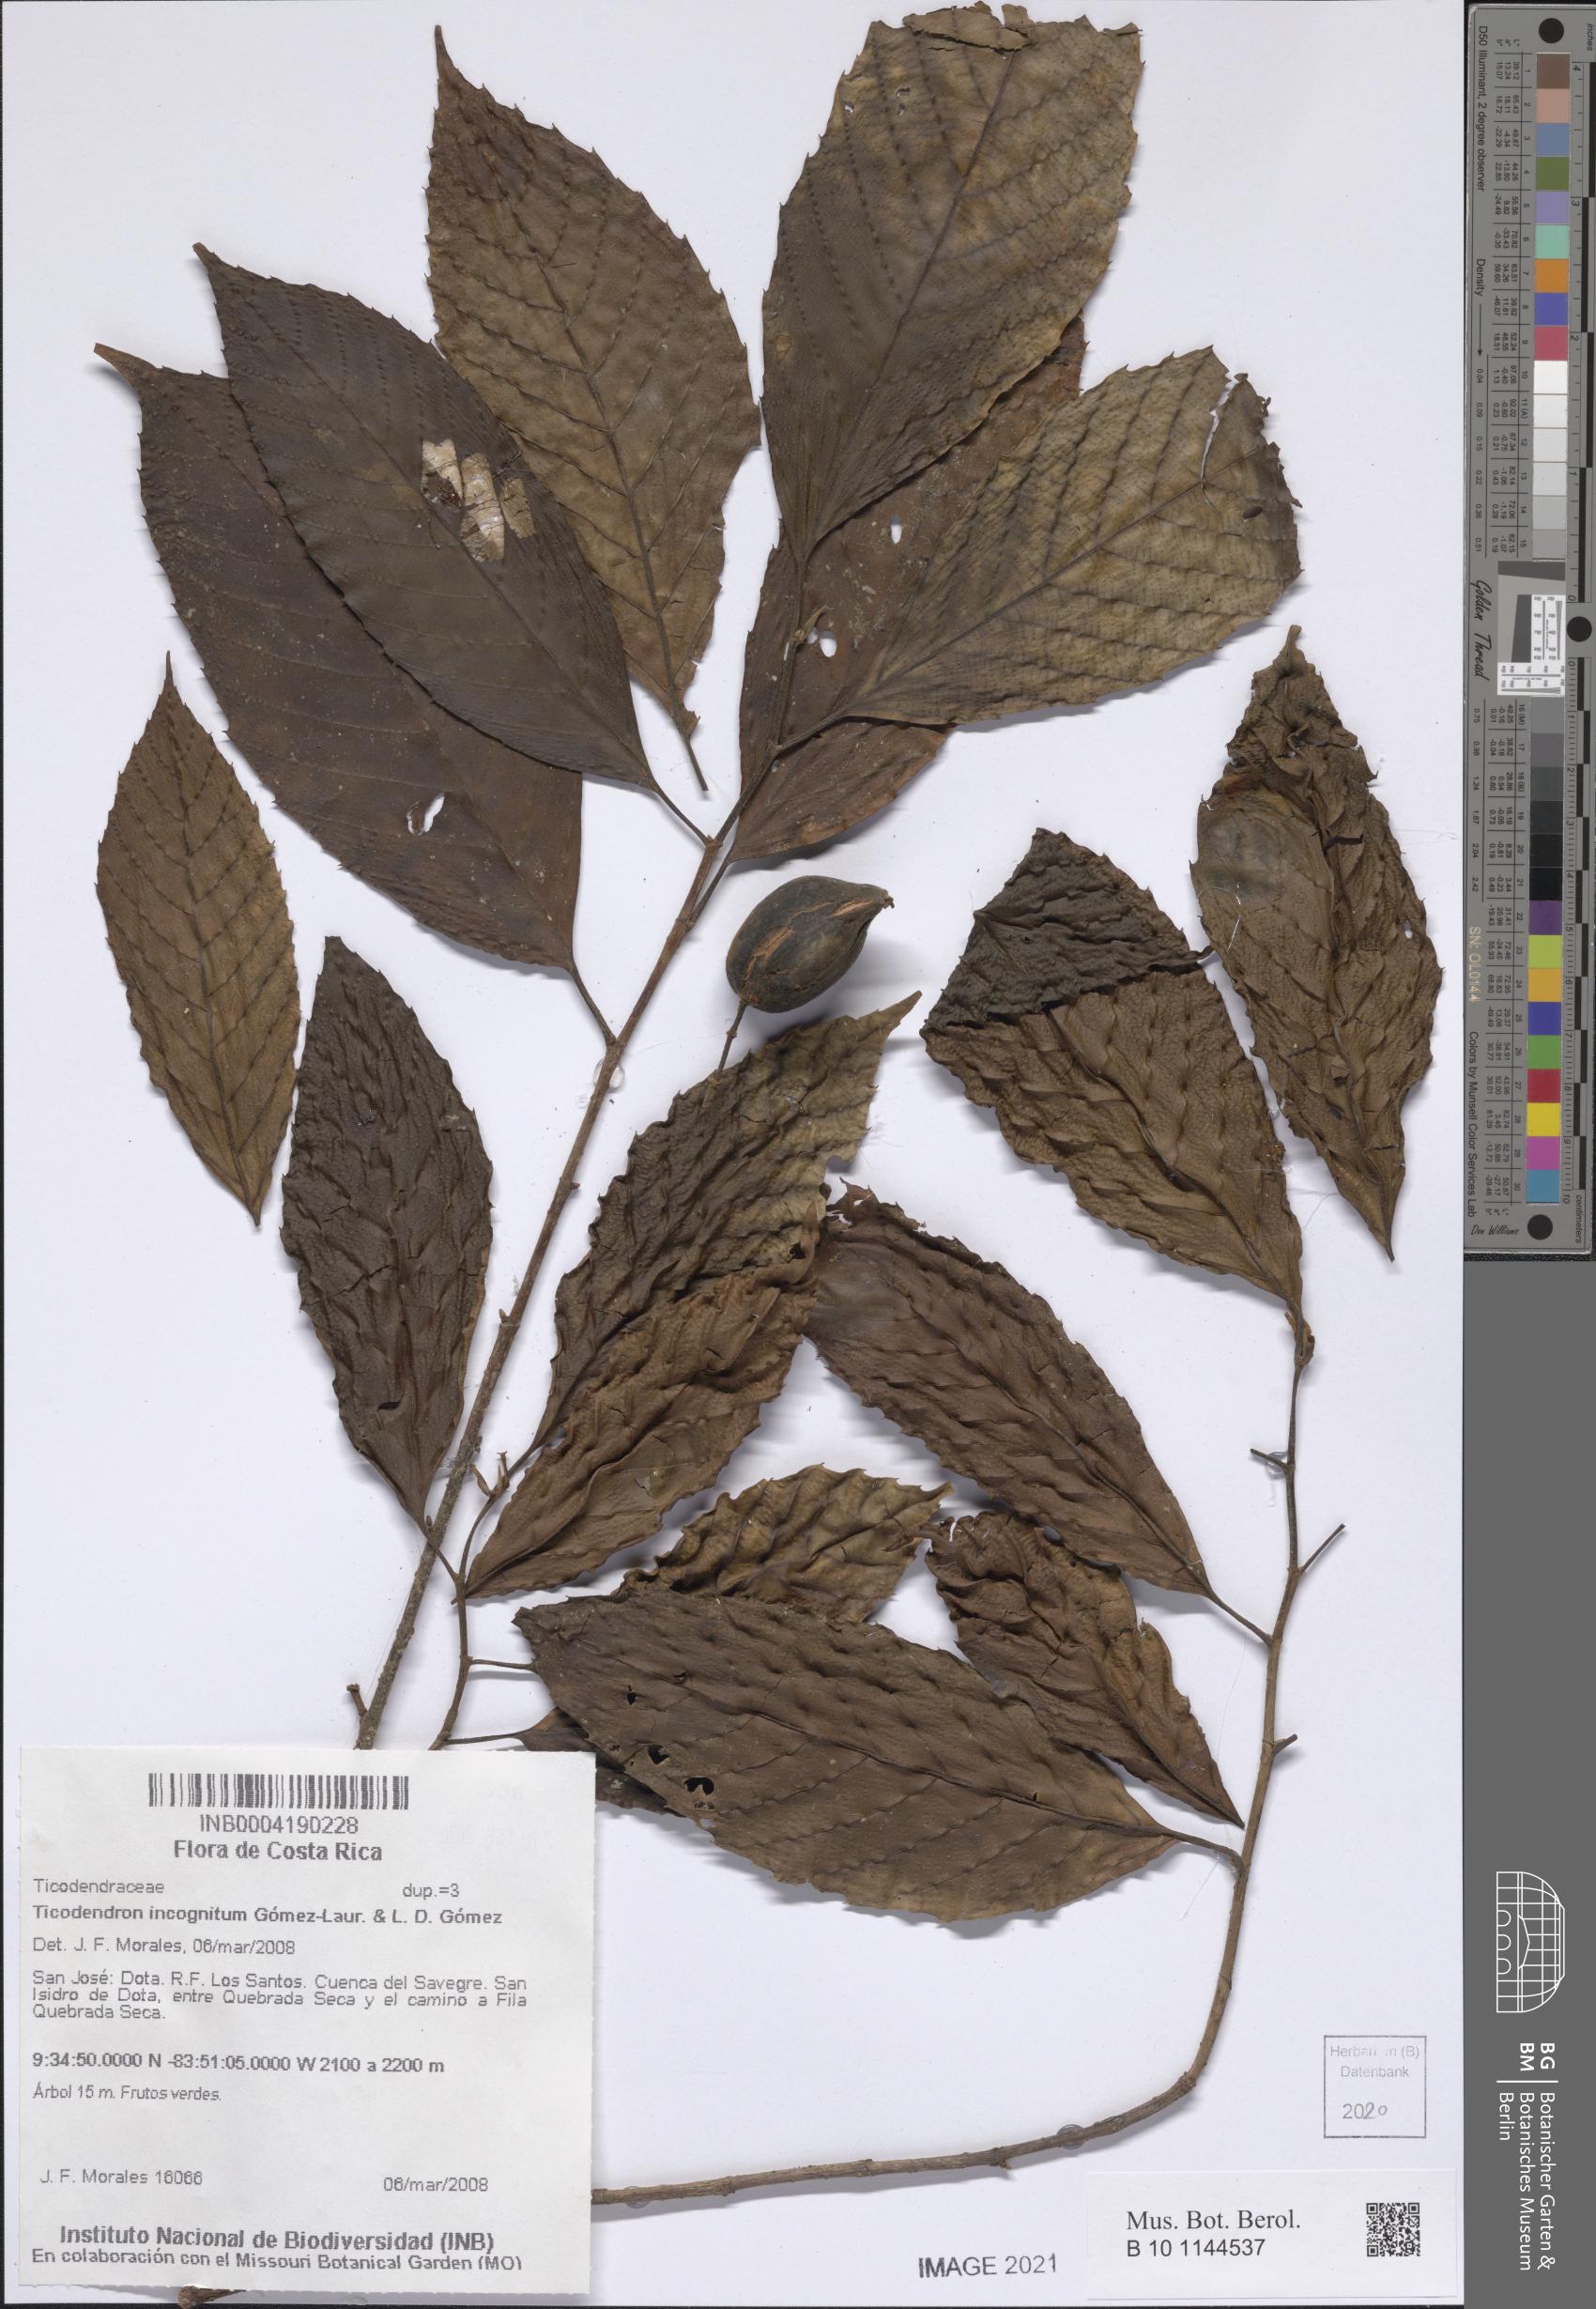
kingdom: Plantae
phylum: Tracheophyta
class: Magnoliopsida
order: Fagales
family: Ticodendraceae
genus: Ticodendron
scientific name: Ticodendron incognitum
